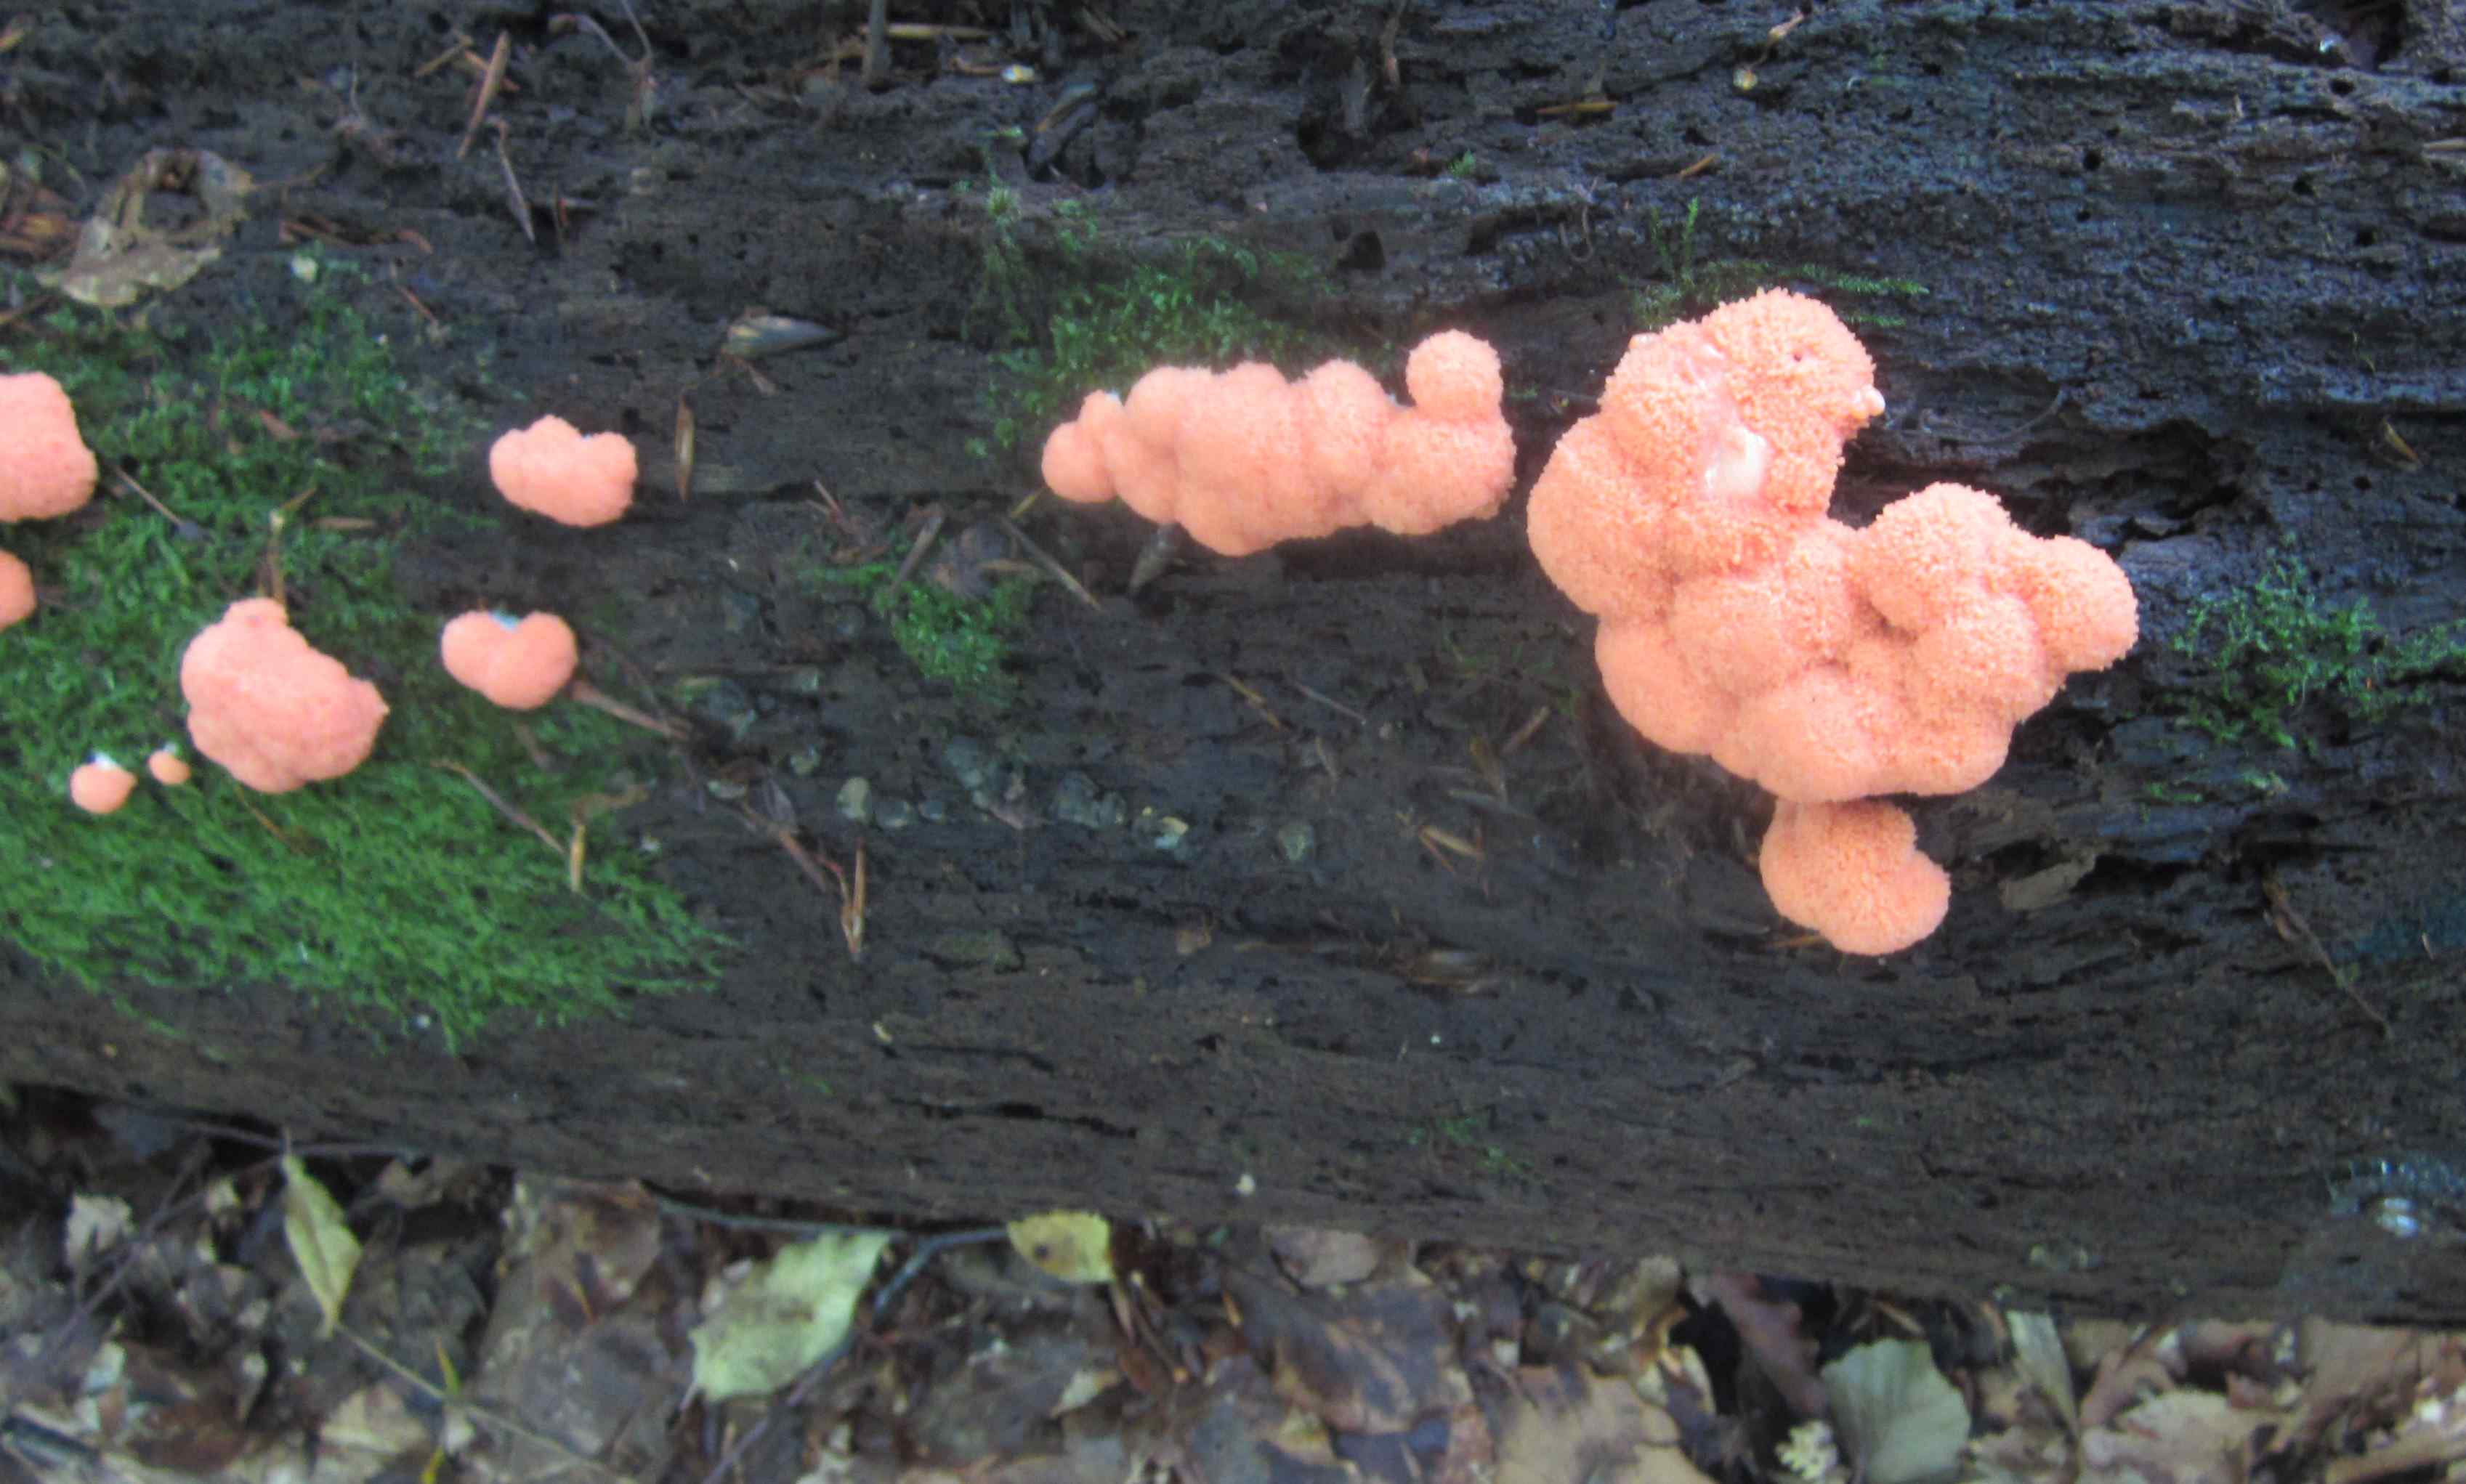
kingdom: Protozoa
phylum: Mycetozoa
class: Myxomycetes
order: Cribrariales
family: Tubiferaceae
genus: Tubifera
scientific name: Tubifera ferruginosa
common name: kanel-støvrør
